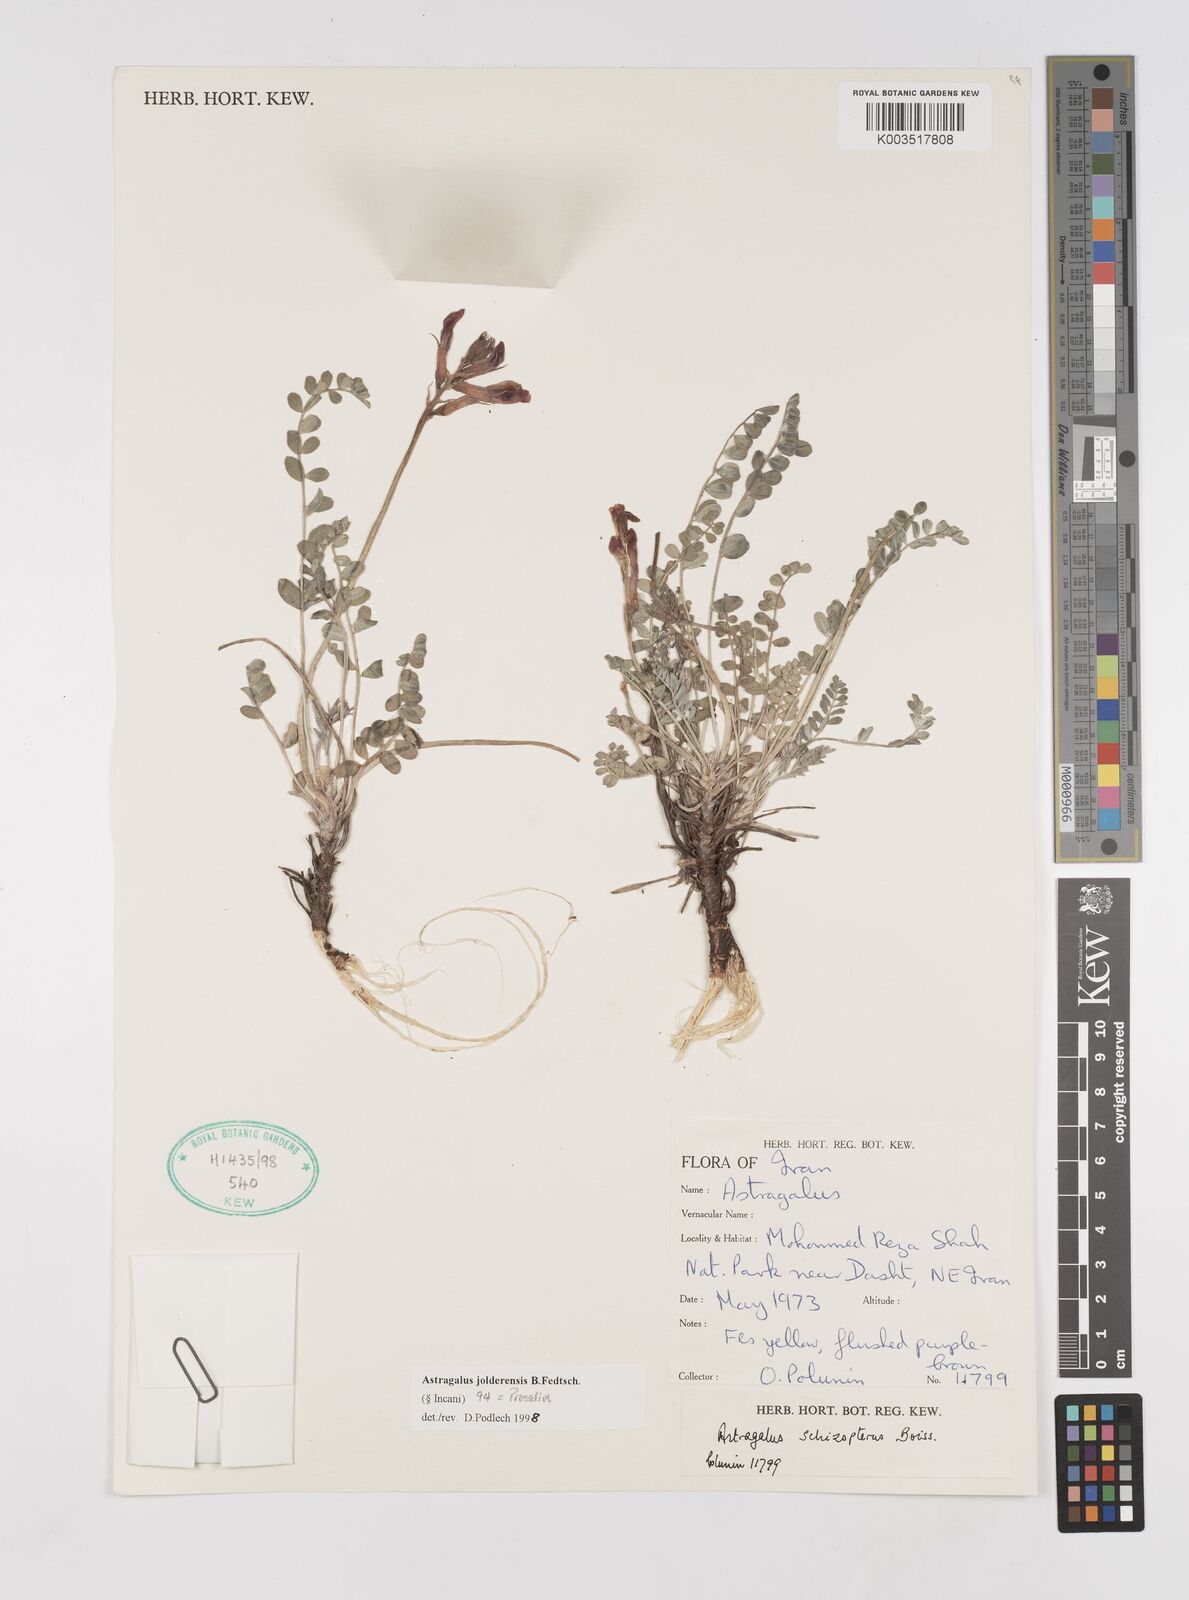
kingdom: Plantae
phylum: Tracheophyta
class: Magnoliopsida
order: Fabales
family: Fabaceae
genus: Astragalus
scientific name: Astragalus jolderensis
